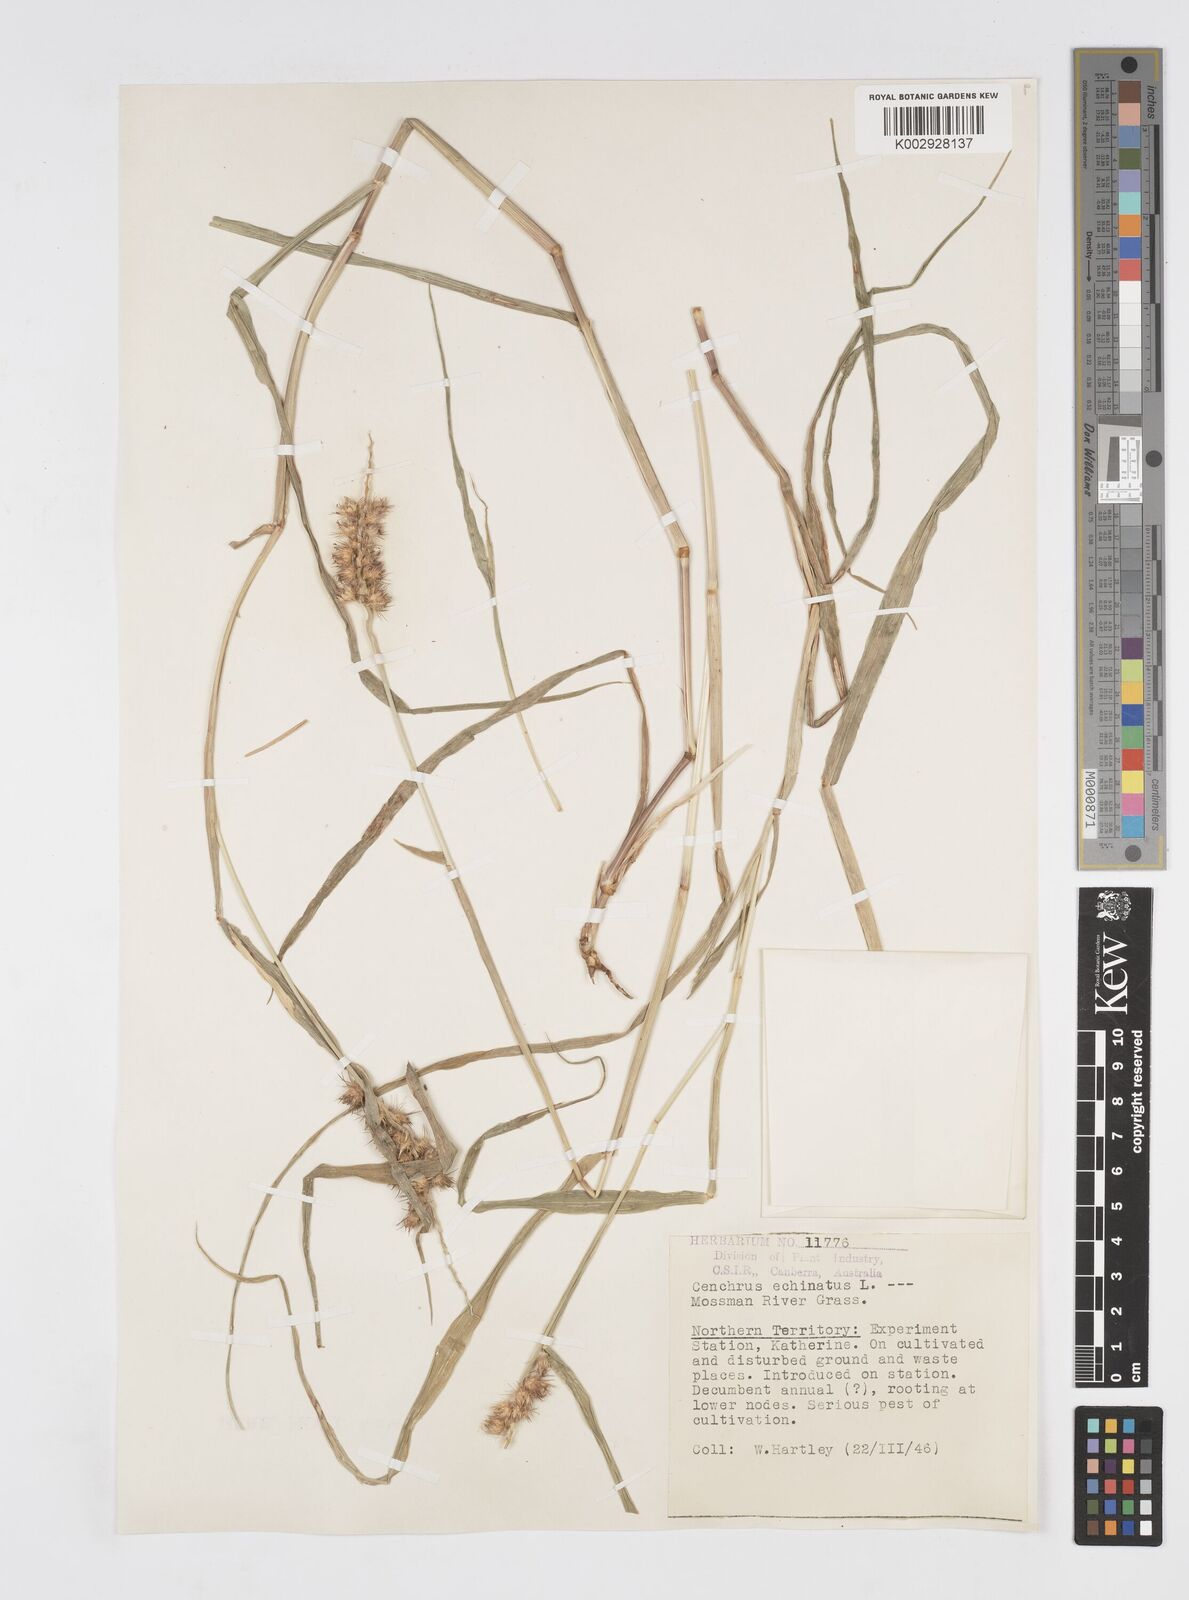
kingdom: Plantae
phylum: Tracheophyta
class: Liliopsida
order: Poales
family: Poaceae
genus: Cenchrus
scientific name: Cenchrus echinatus
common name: Southern sandbur
